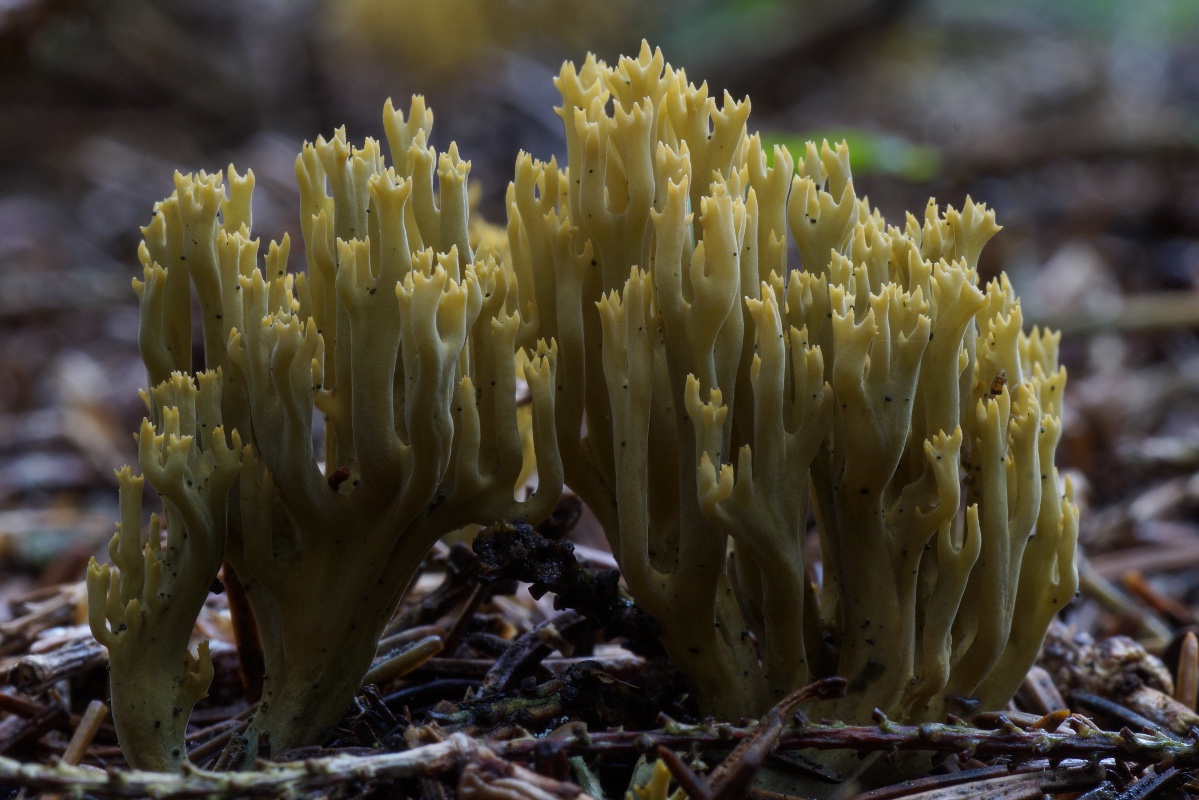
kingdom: Fungi
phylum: Basidiomycota
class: Agaricomycetes
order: Gomphales
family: Gomphaceae
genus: Phaeoclavulina
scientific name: Phaeoclavulina abietina
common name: gulgrøn koralsvamp
